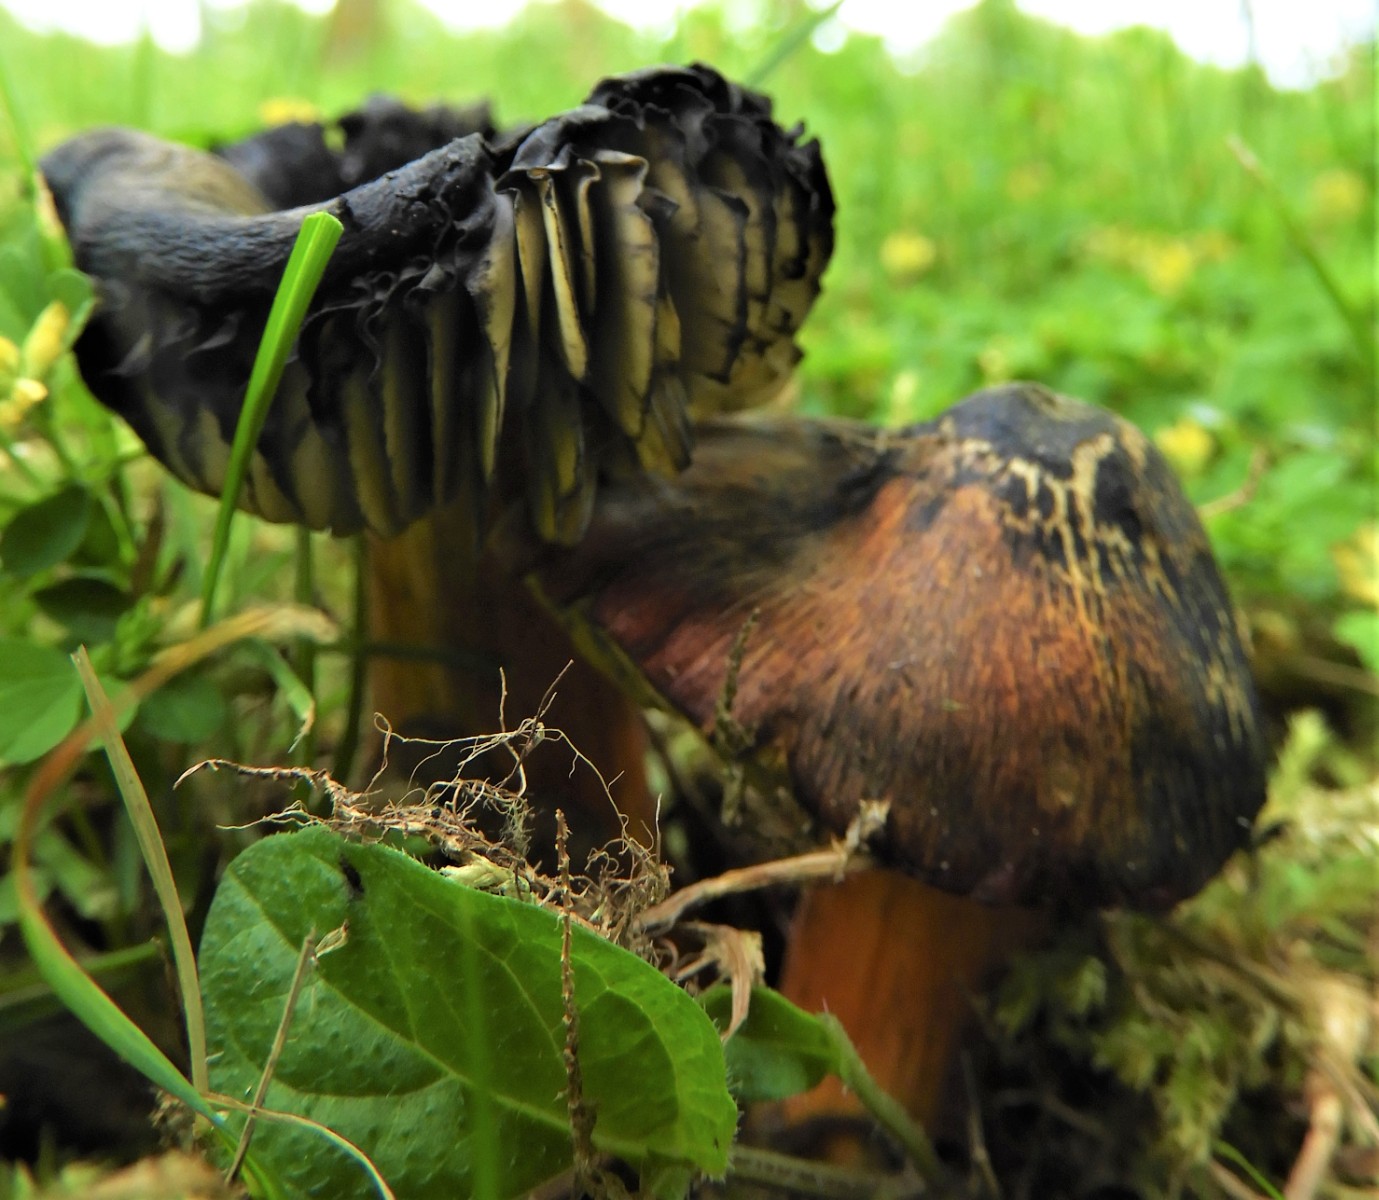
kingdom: Fungi
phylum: Basidiomycota
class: Agaricomycetes
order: Agaricales
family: Hygrophoraceae
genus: Hygrocybe
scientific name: Hygrocybe conica
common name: kegle-vokshat
